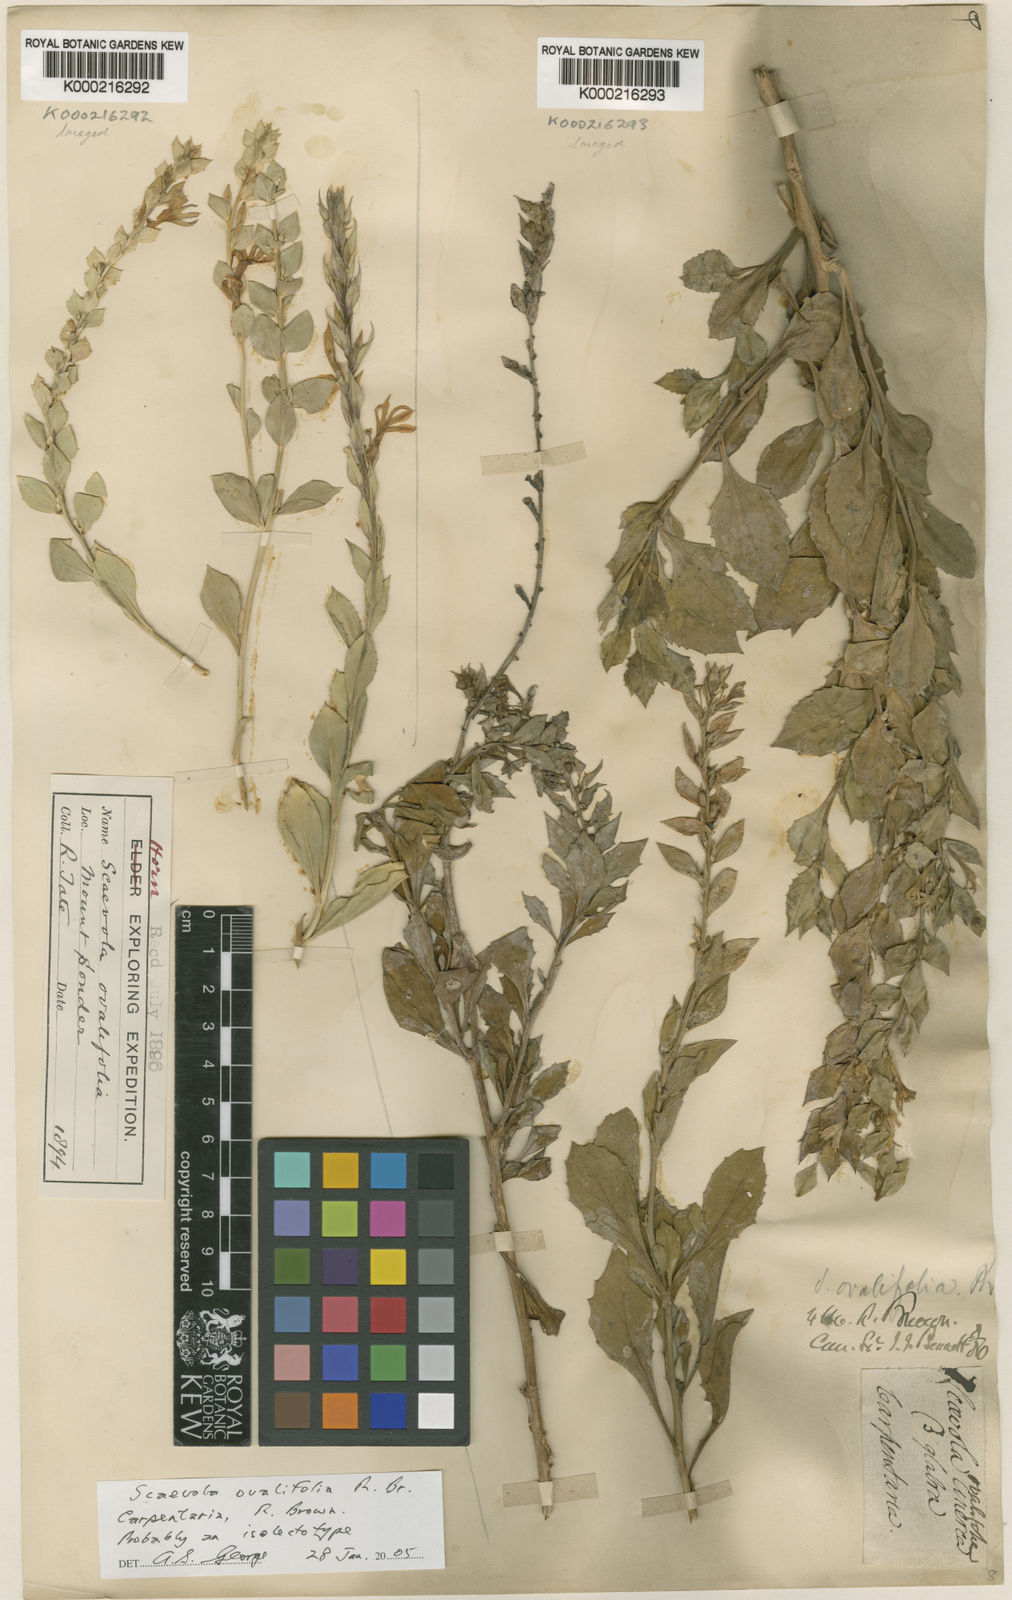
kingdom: Plantae
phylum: Tracheophyta
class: Magnoliopsida
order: Asterales
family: Goodeniaceae
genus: Scaevola
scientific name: Scaevola ovalifolia
